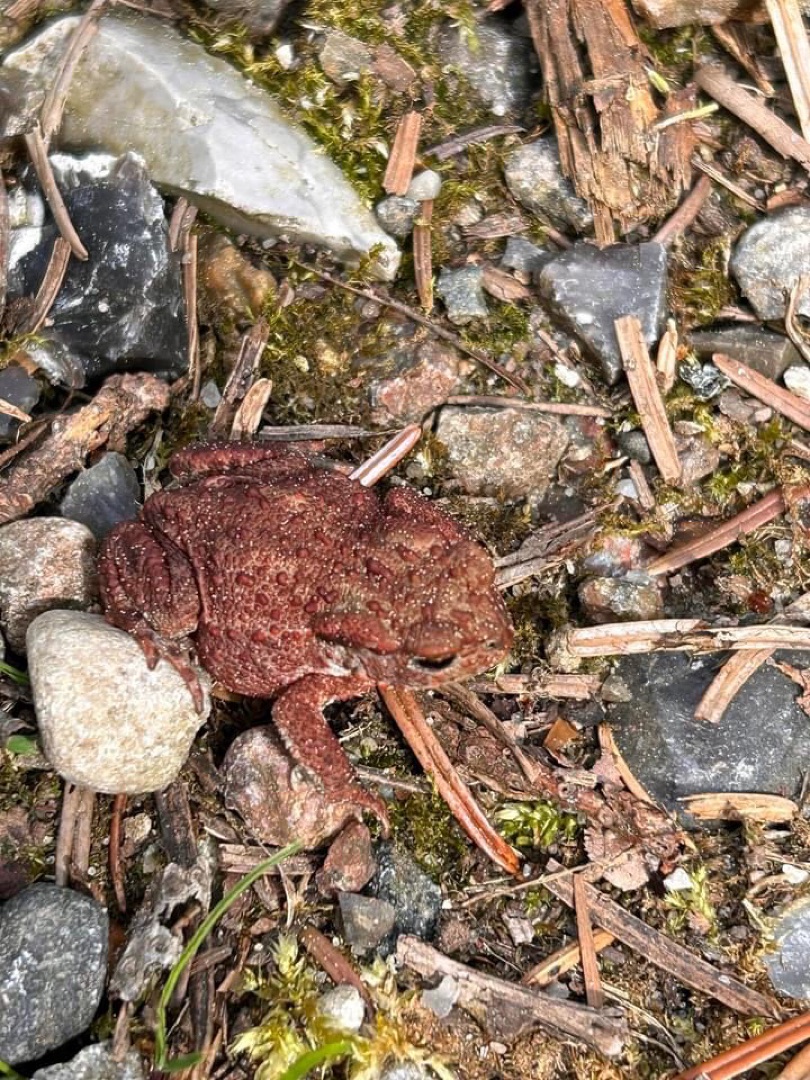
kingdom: Animalia
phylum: Chordata
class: Amphibia
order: Anura
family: Bufonidae
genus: Bufo
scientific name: Bufo bufo
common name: Skrubtudse
